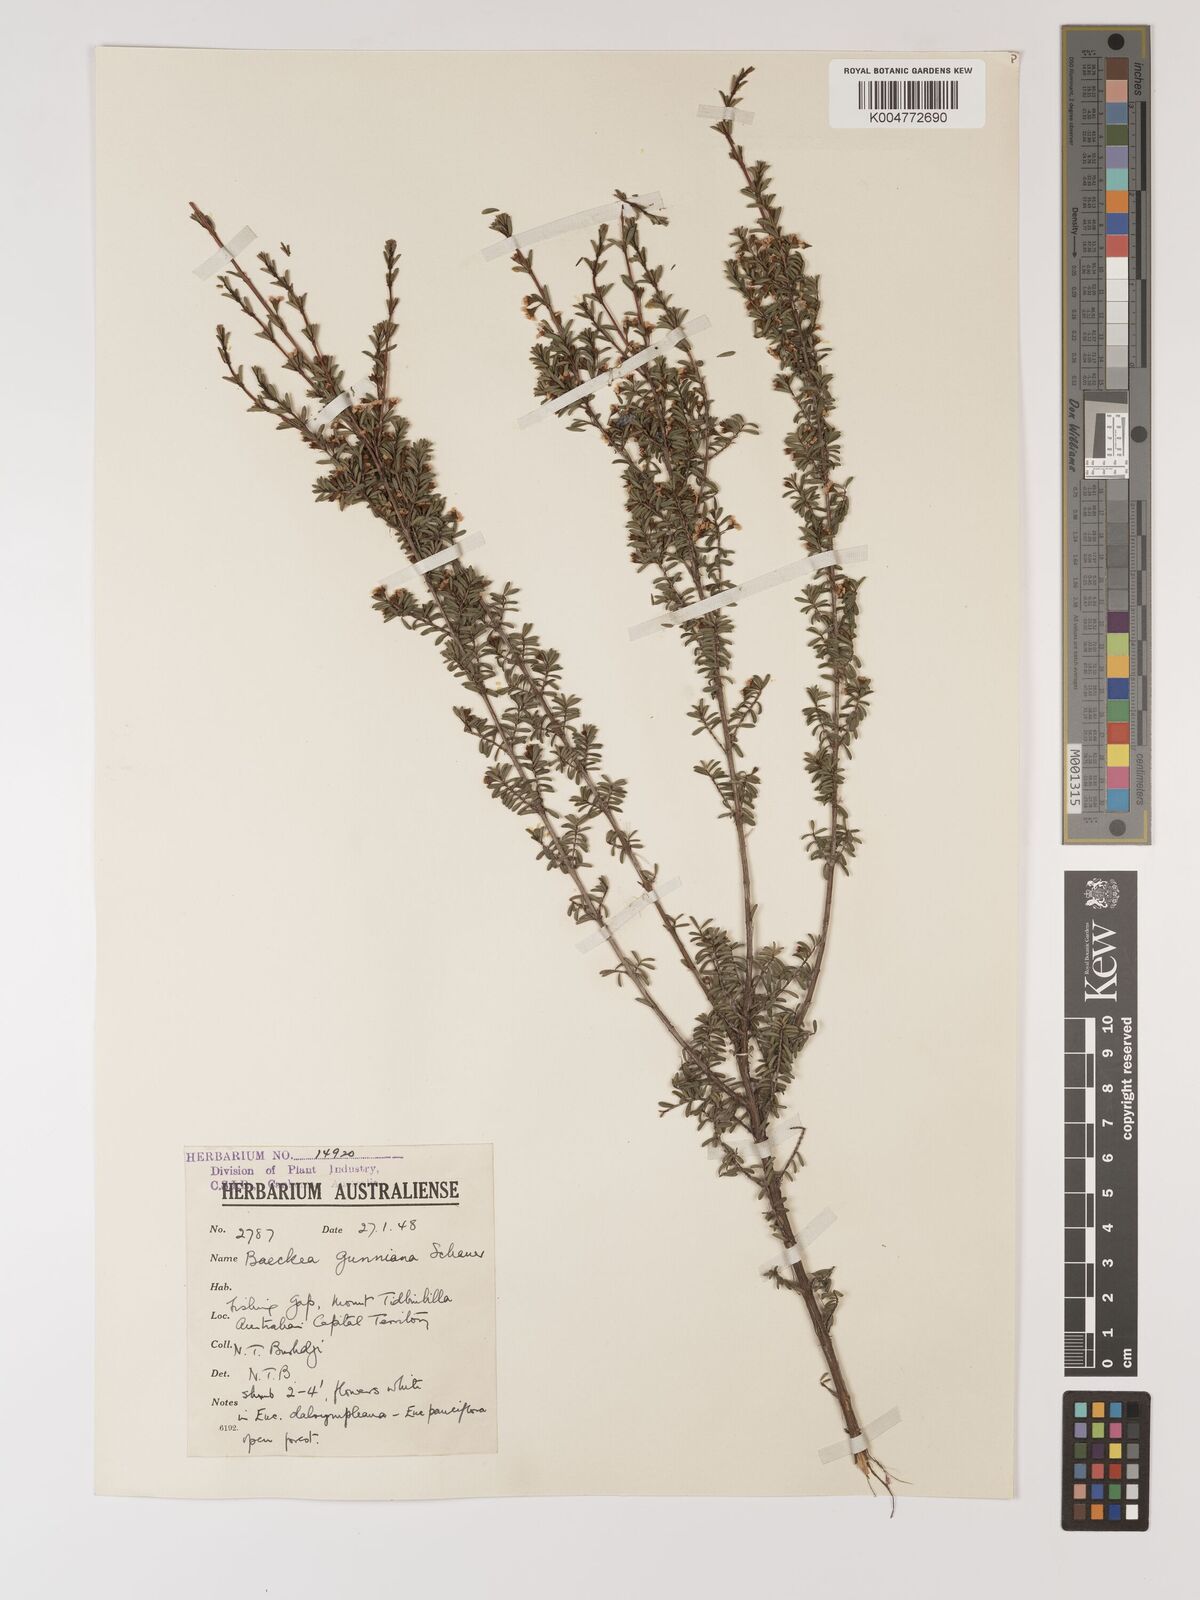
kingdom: Plantae
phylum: Tracheophyta
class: Magnoliopsida
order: Myrtales
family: Myrtaceae
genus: Baeckea
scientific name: Baeckea gunniana
